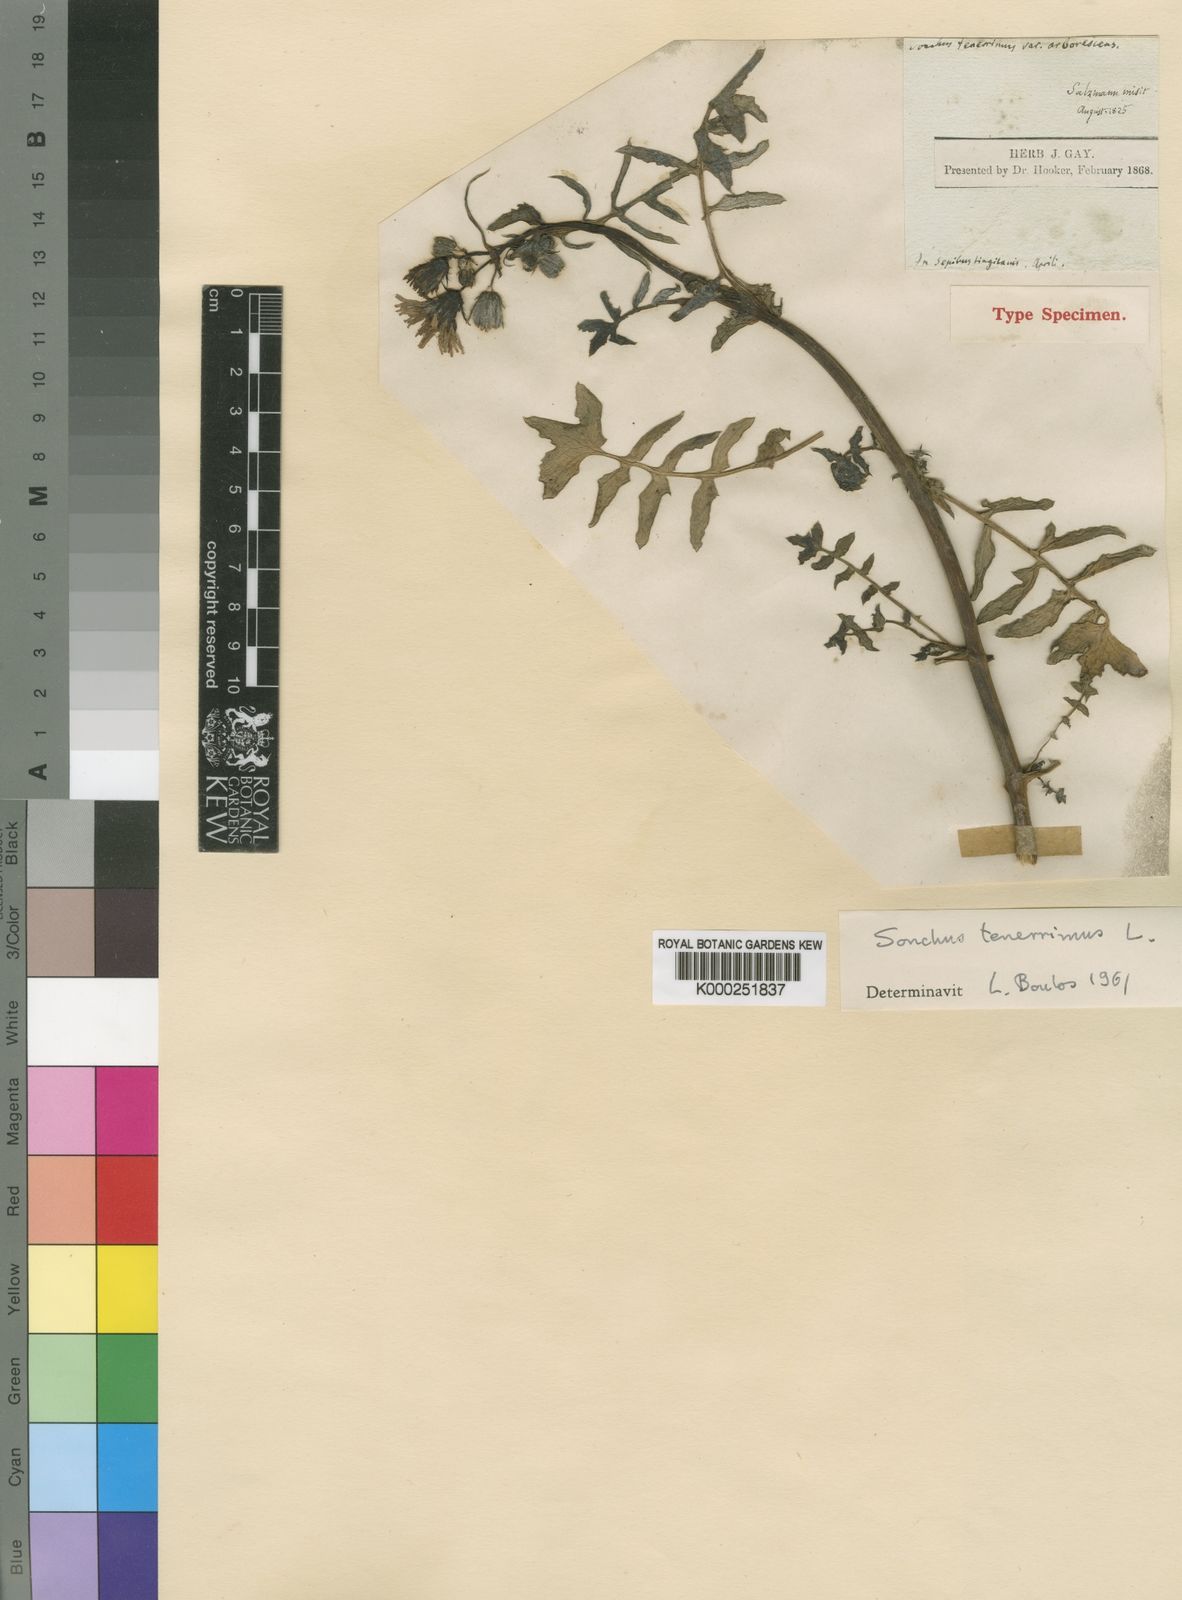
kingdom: Plantae
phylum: Tracheophyta
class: Magnoliopsida
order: Asterales
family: Asteraceae
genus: Sonchus
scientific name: Sonchus tenerrimus
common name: Clammy sowthistle
